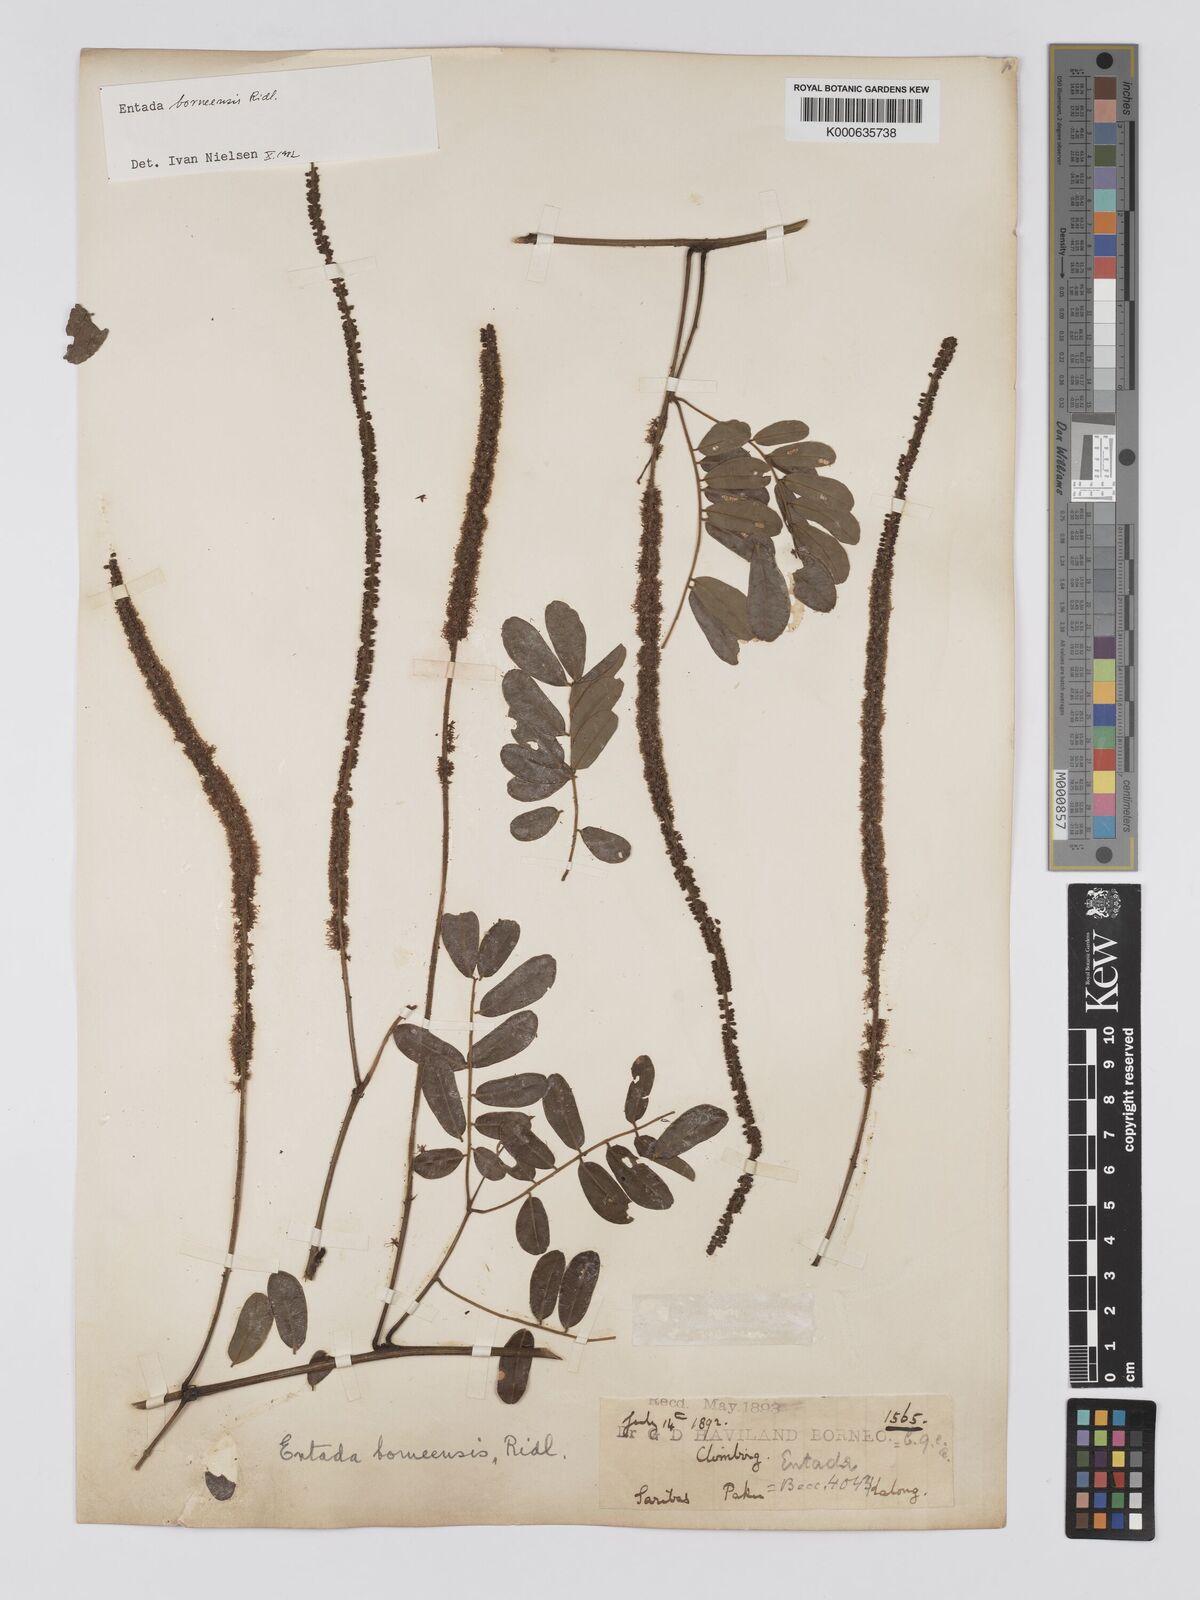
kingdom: Plantae
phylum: Tracheophyta
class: Magnoliopsida
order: Fabales
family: Fabaceae
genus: Entada
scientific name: Entada borneensis
